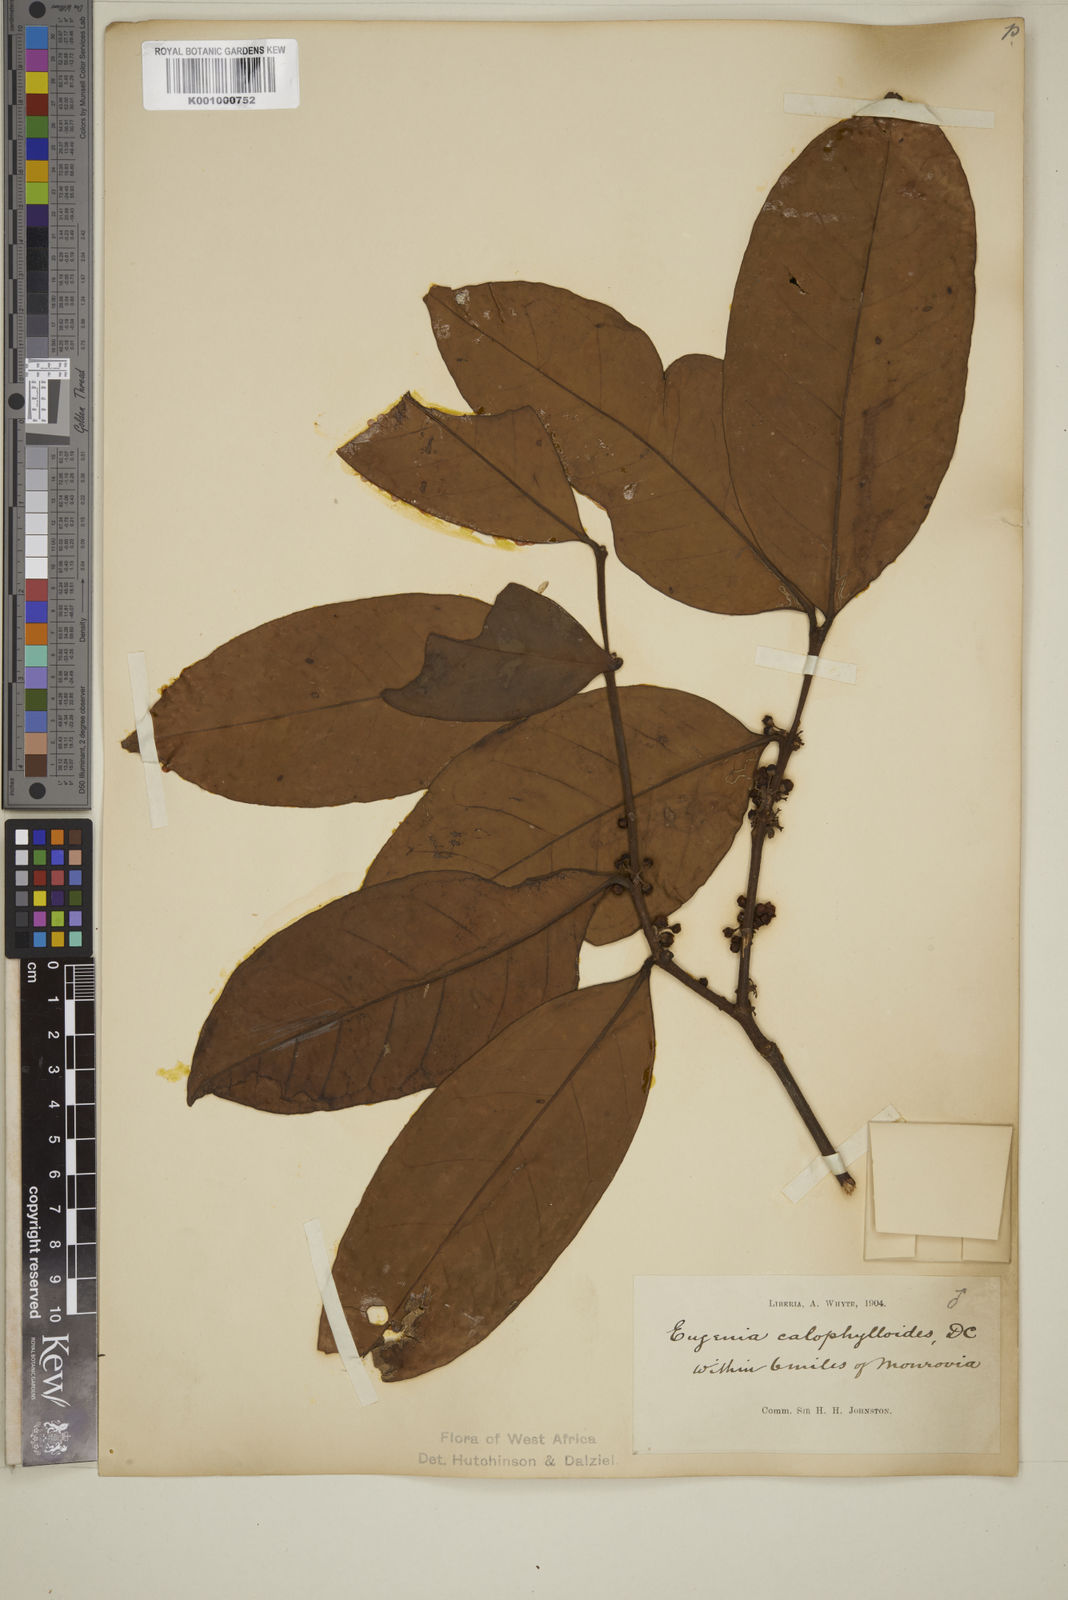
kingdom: Plantae
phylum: Tracheophyta
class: Magnoliopsida
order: Myrtales
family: Myrtaceae
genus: Eugenia
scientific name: Eugenia calophylloides
